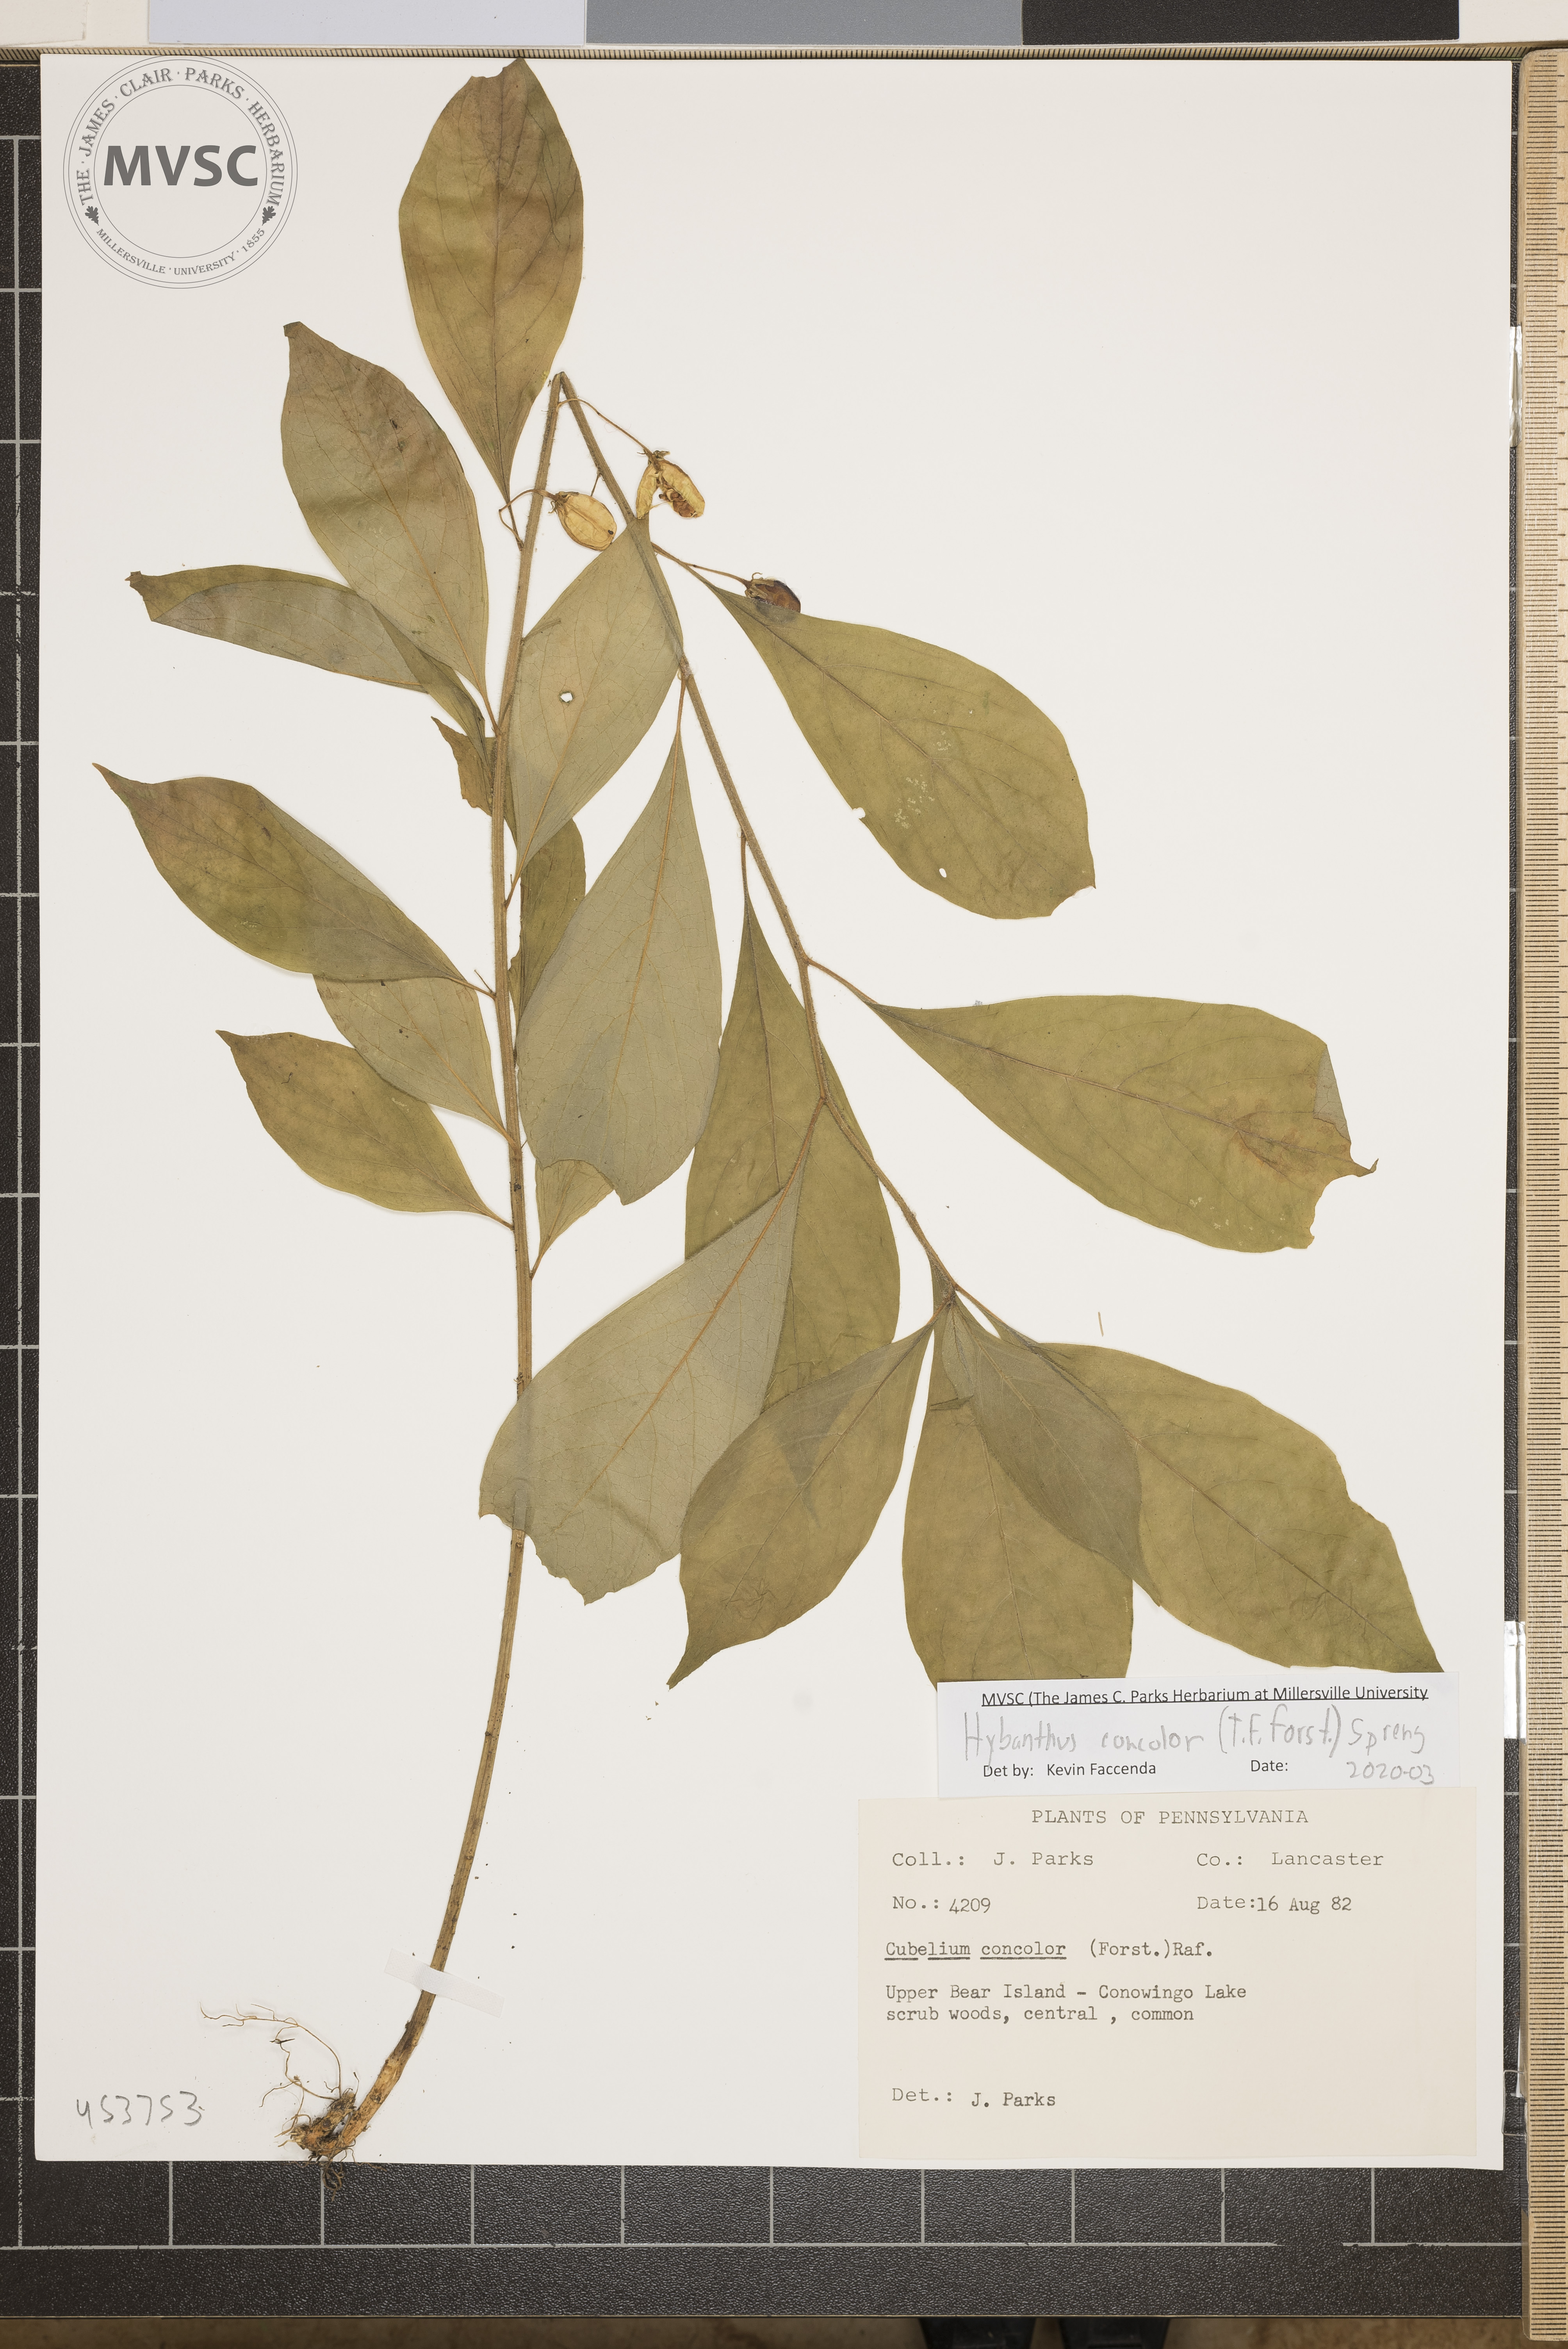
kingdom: Plantae
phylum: Tracheophyta
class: Magnoliopsida
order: Malpighiales
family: Violaceae
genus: Cubelium
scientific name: Cubelium concolor
